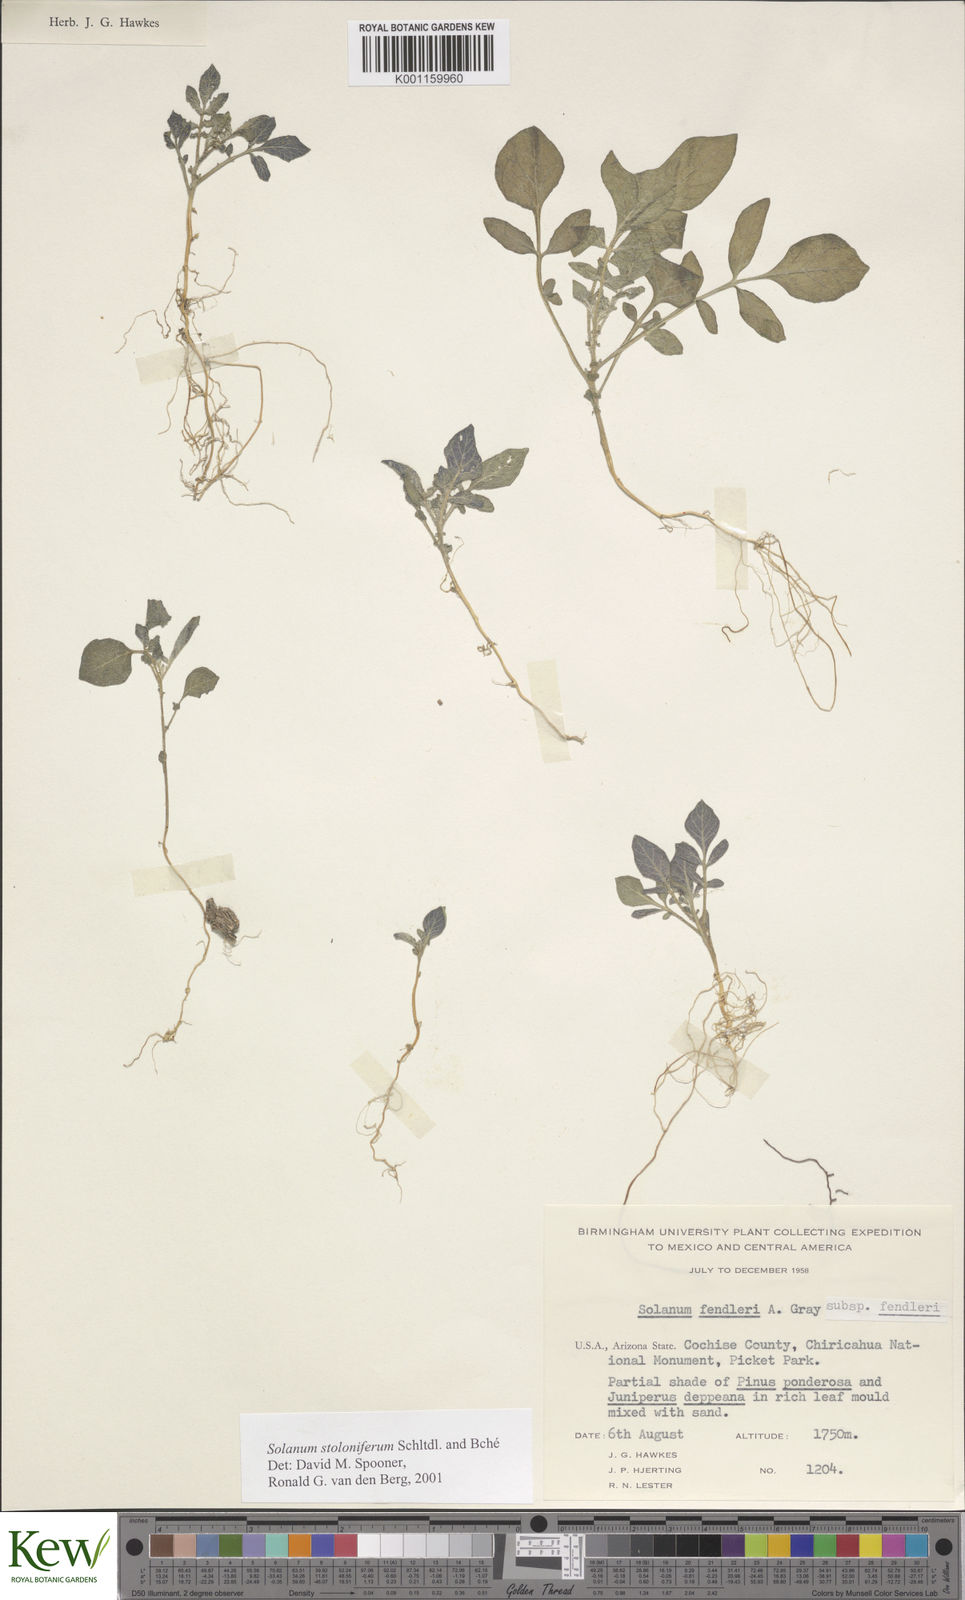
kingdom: Plantae
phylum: Tracheophyta
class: Magnoliopsida
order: Solanales
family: Solanaceae
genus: Solanum
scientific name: Solanum stoloniferum
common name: Fendler's nighshade
